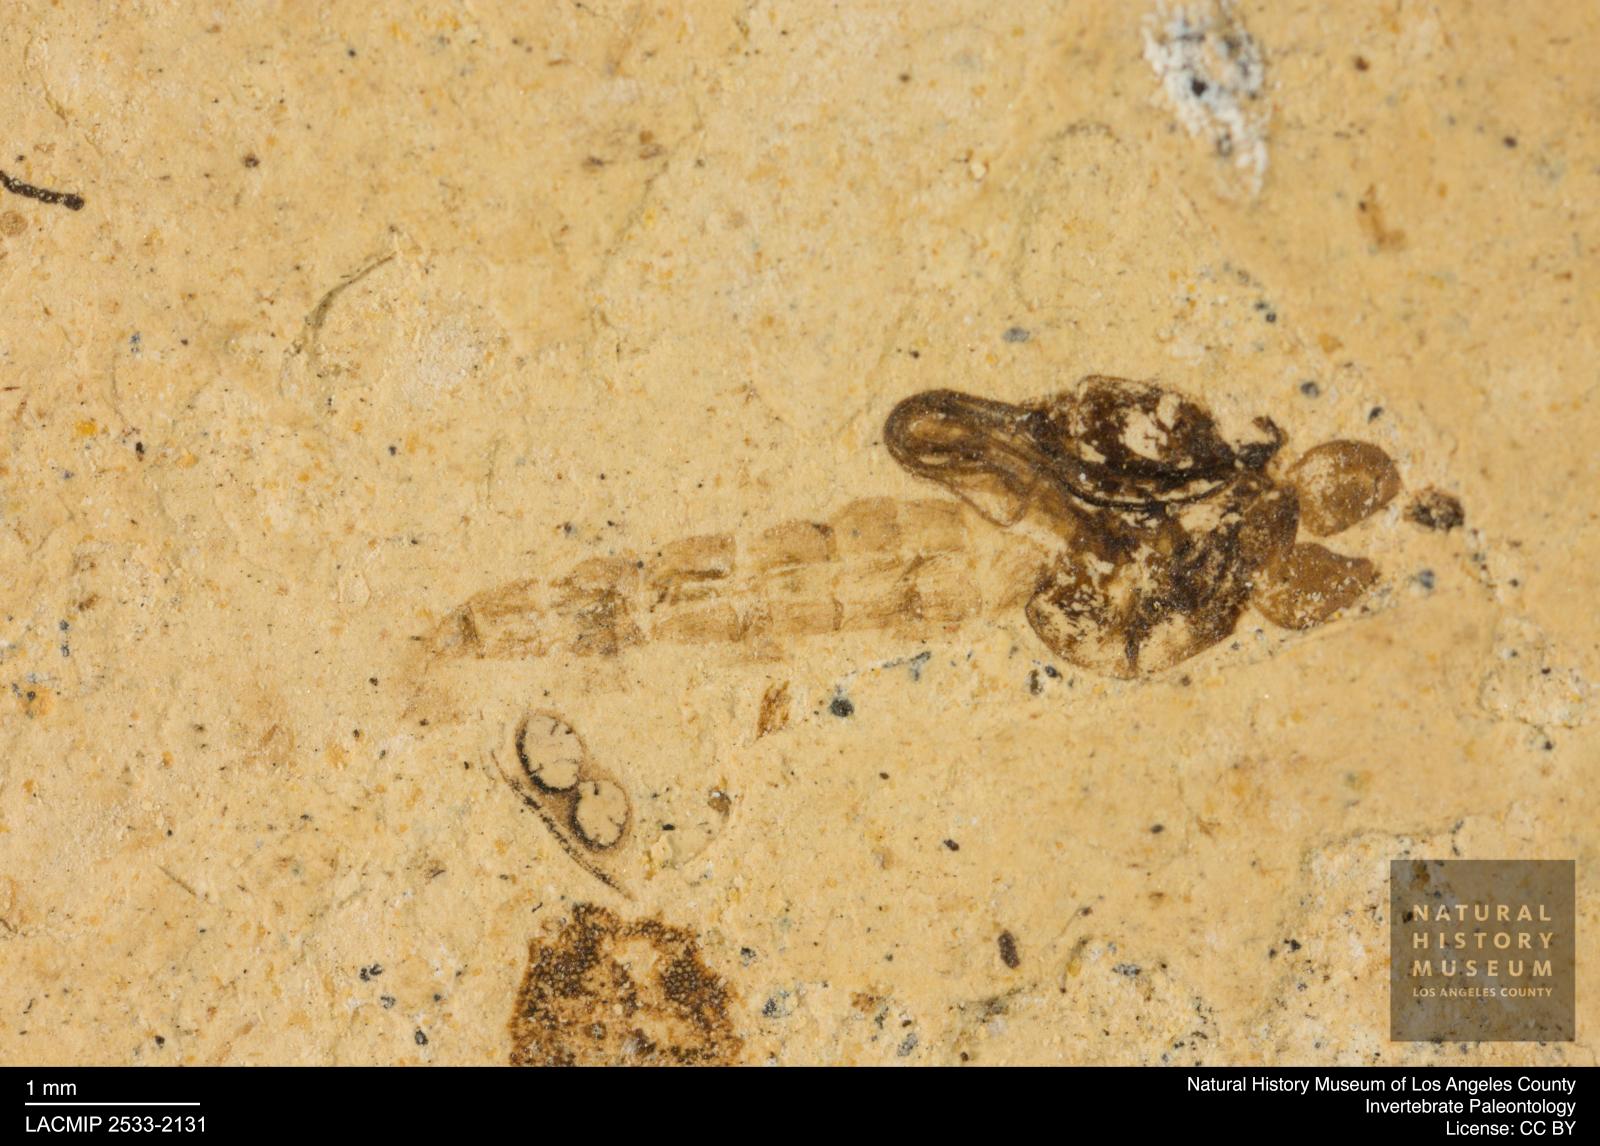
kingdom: Animalia
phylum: Arthropoda
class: Insecta
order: Diptera
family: Chironomidae
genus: Pelopiina
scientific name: Pelopiina
